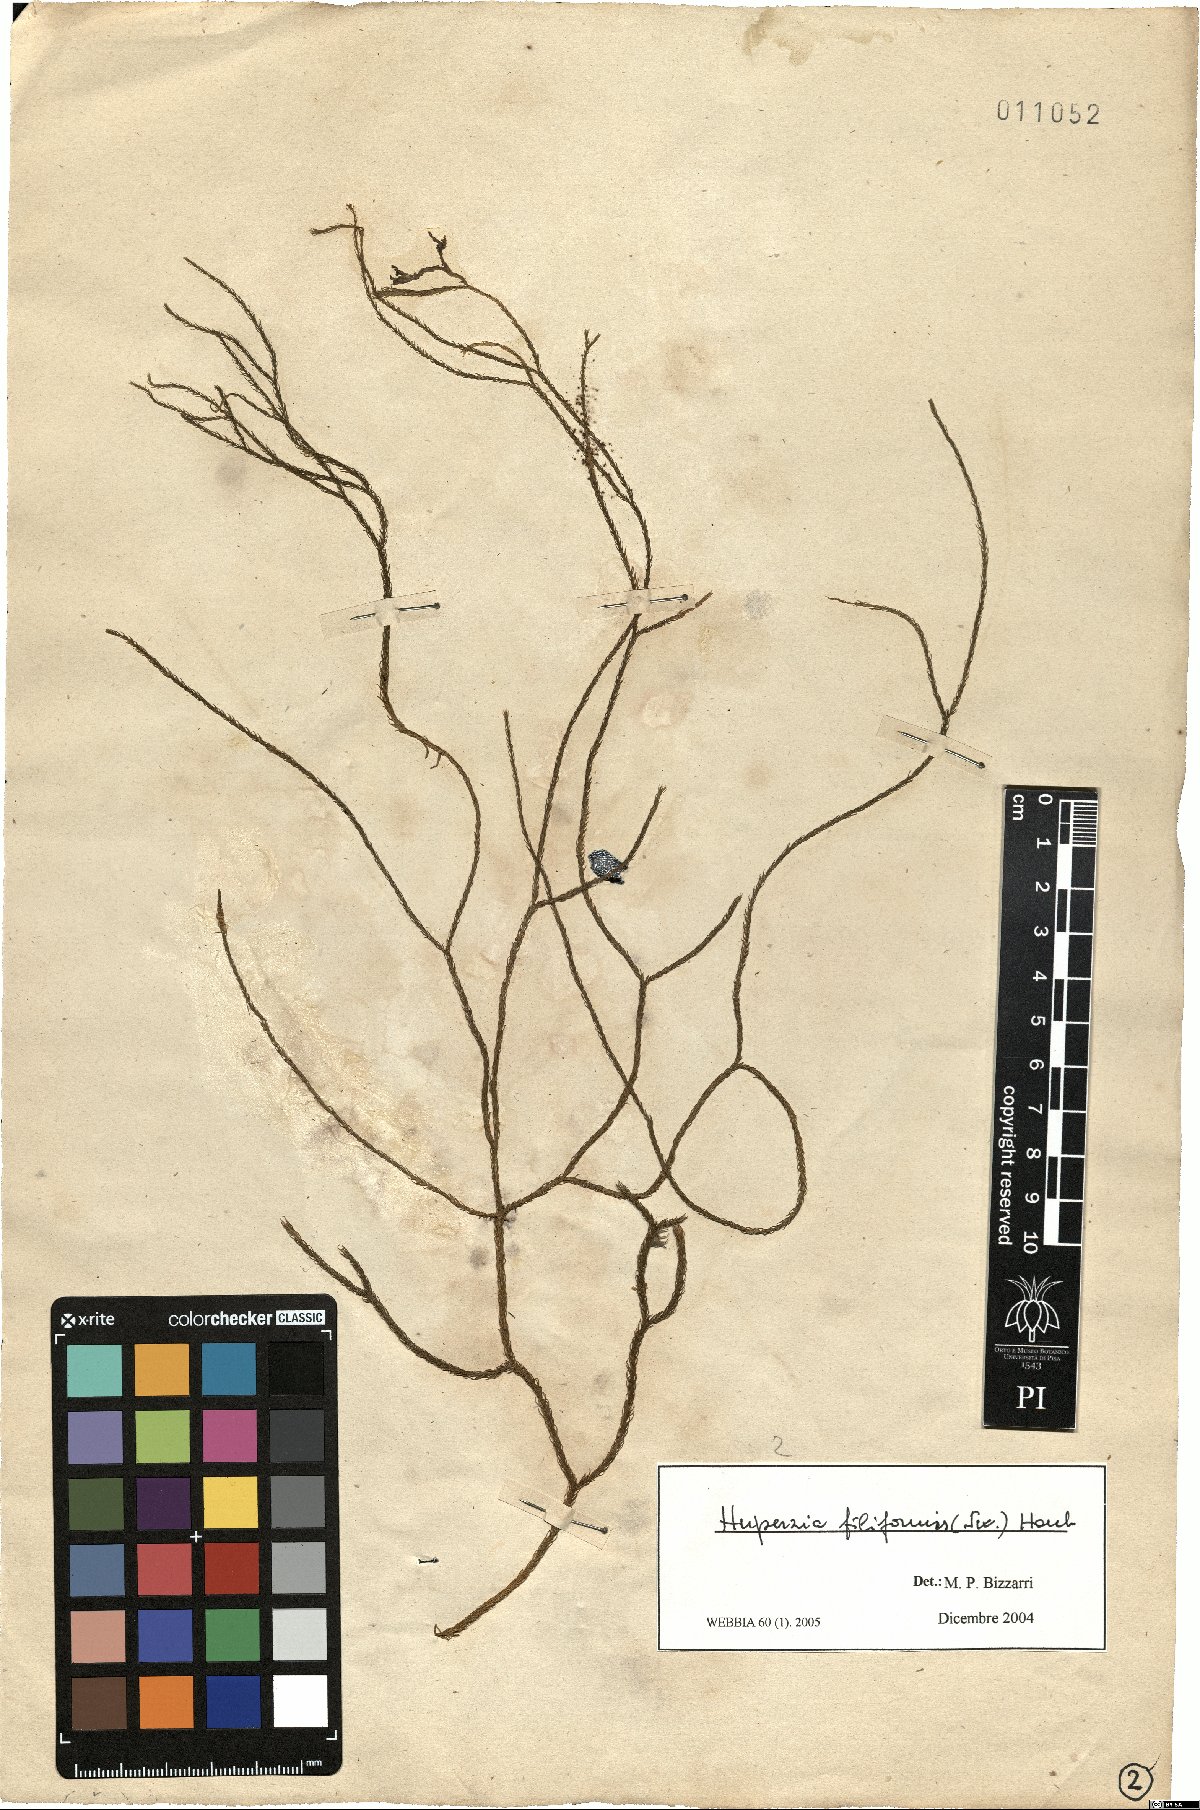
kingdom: Plantae
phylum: Tracheophyta
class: Lycopodiopsida
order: Lycopodiales
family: Lycopodiaceae
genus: Phlegmariurus
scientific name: Phlegmariurus filiformis
